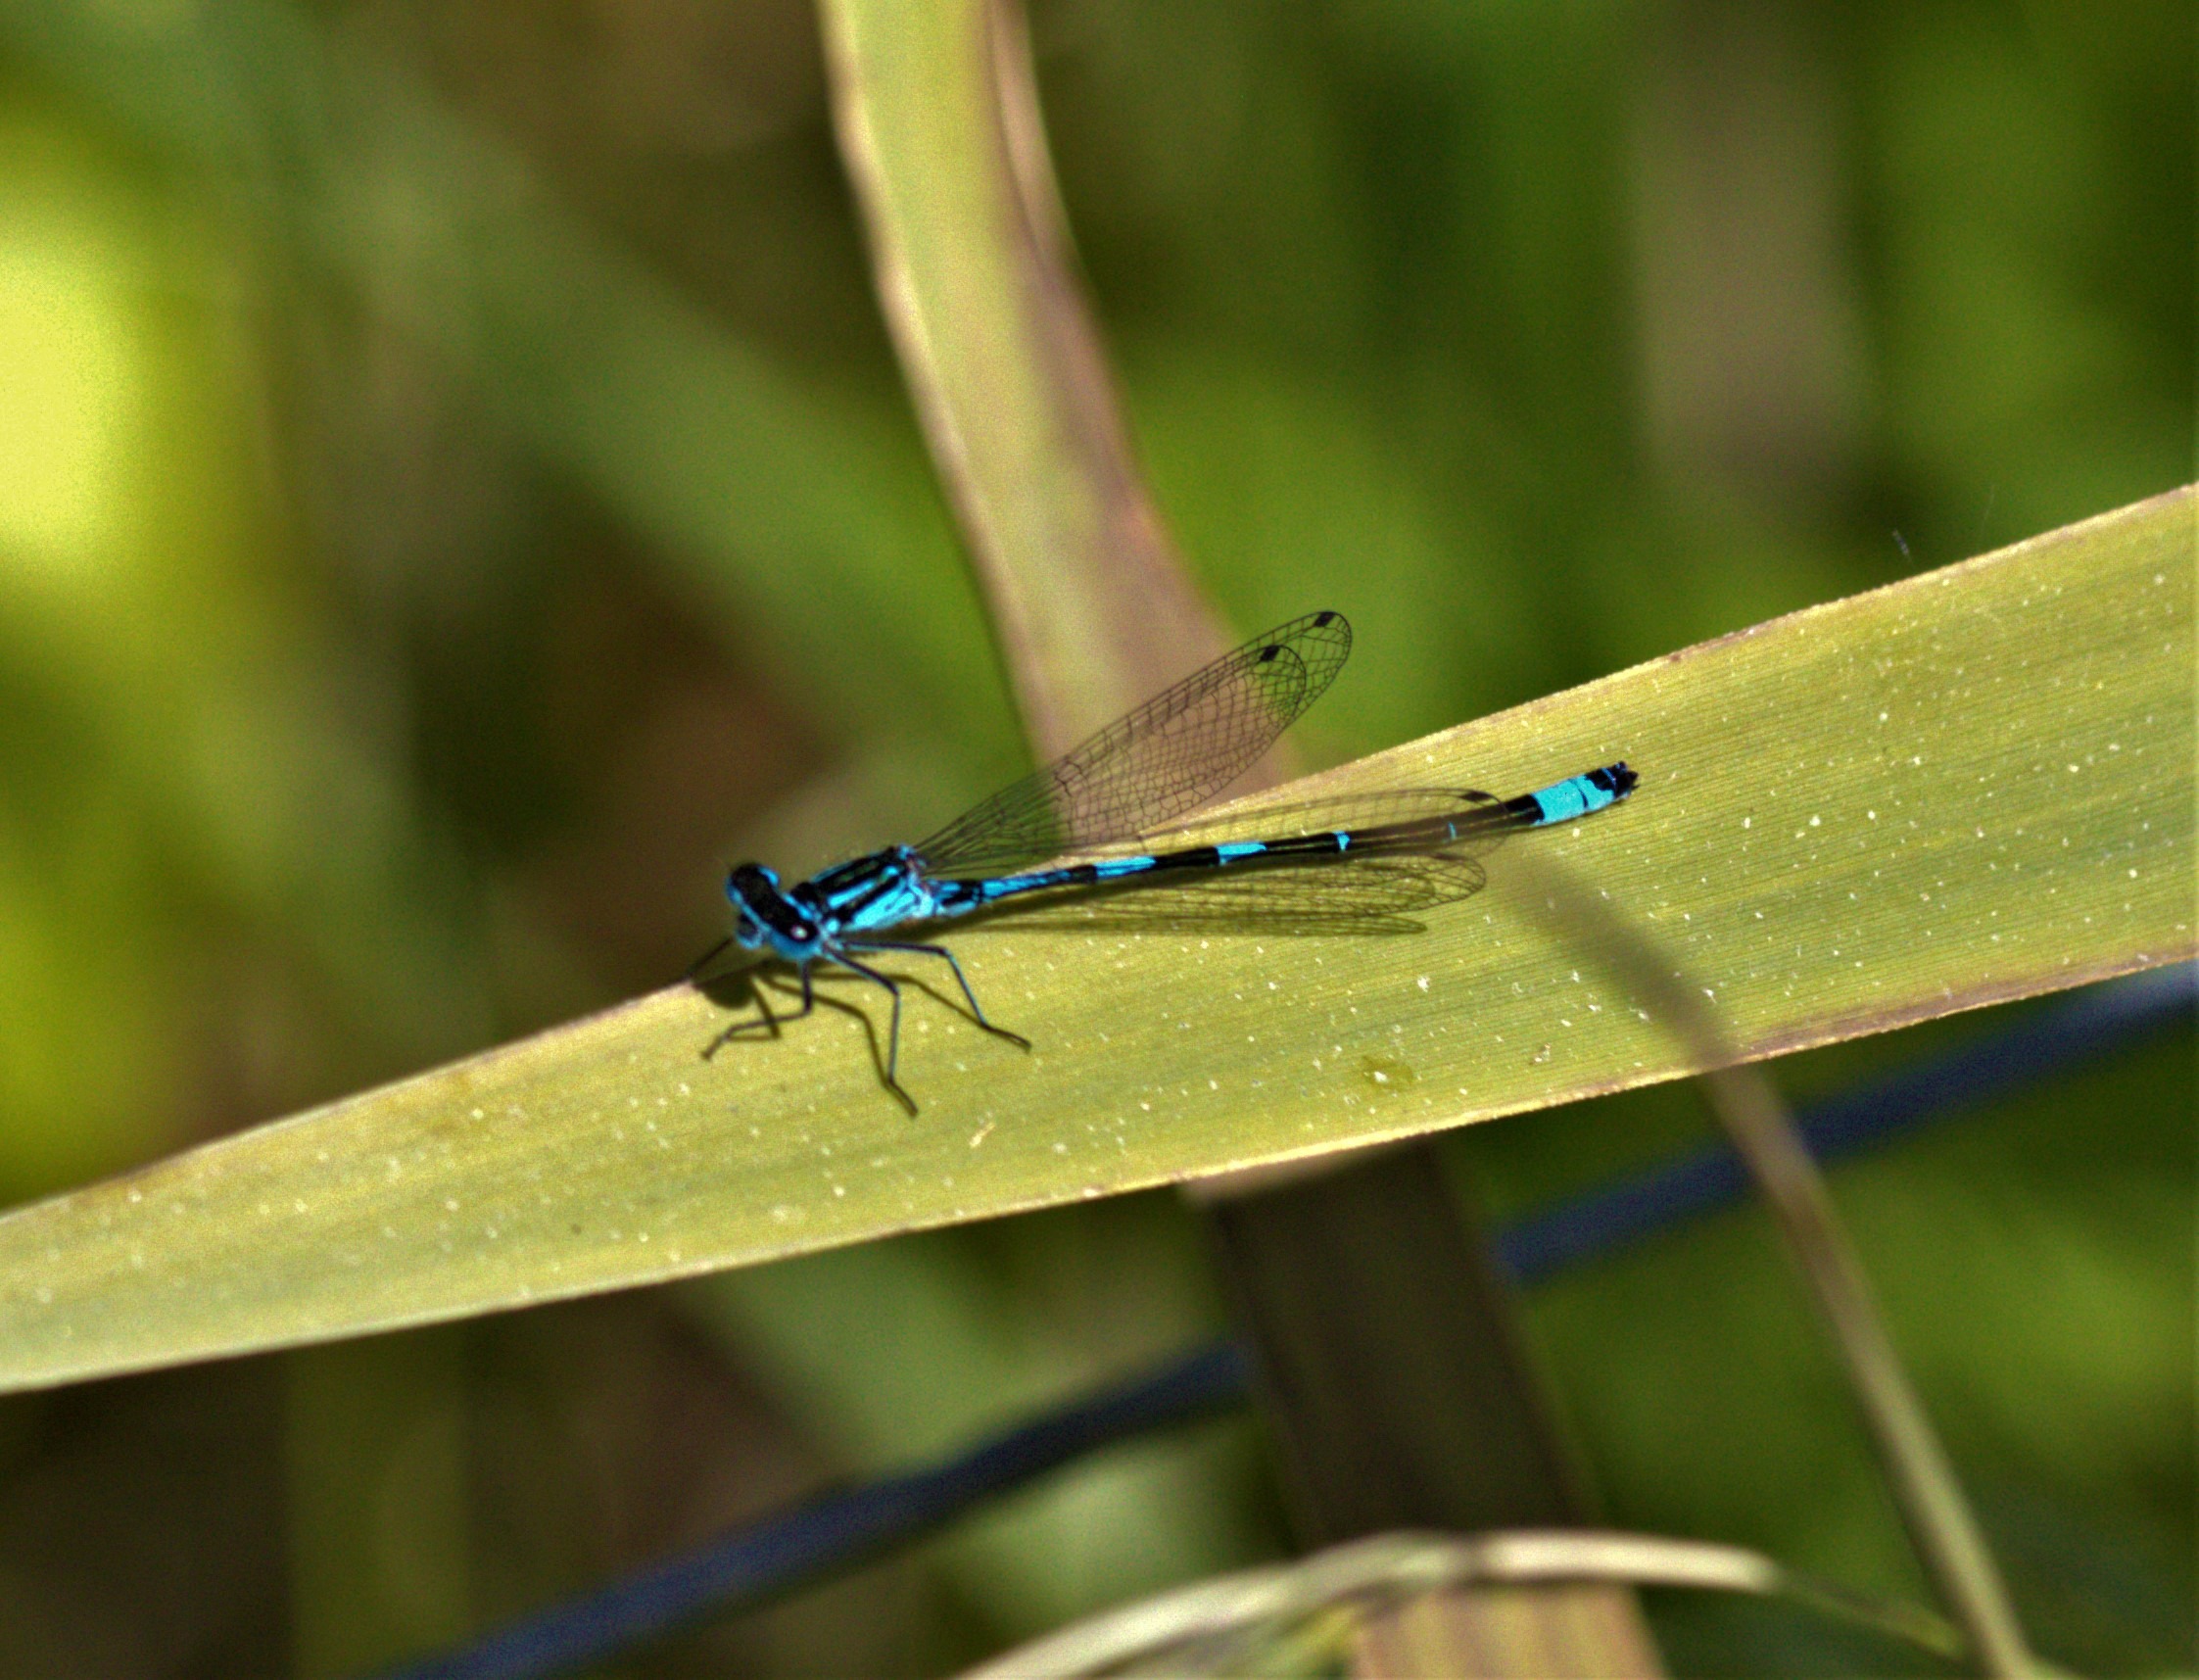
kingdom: Animalia
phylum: Arthropoda
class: Insecta
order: Odonata
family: Coenagrionidae
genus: Coenagrion
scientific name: Coenagrion pulchellum
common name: Flagermus-vandnymfe
